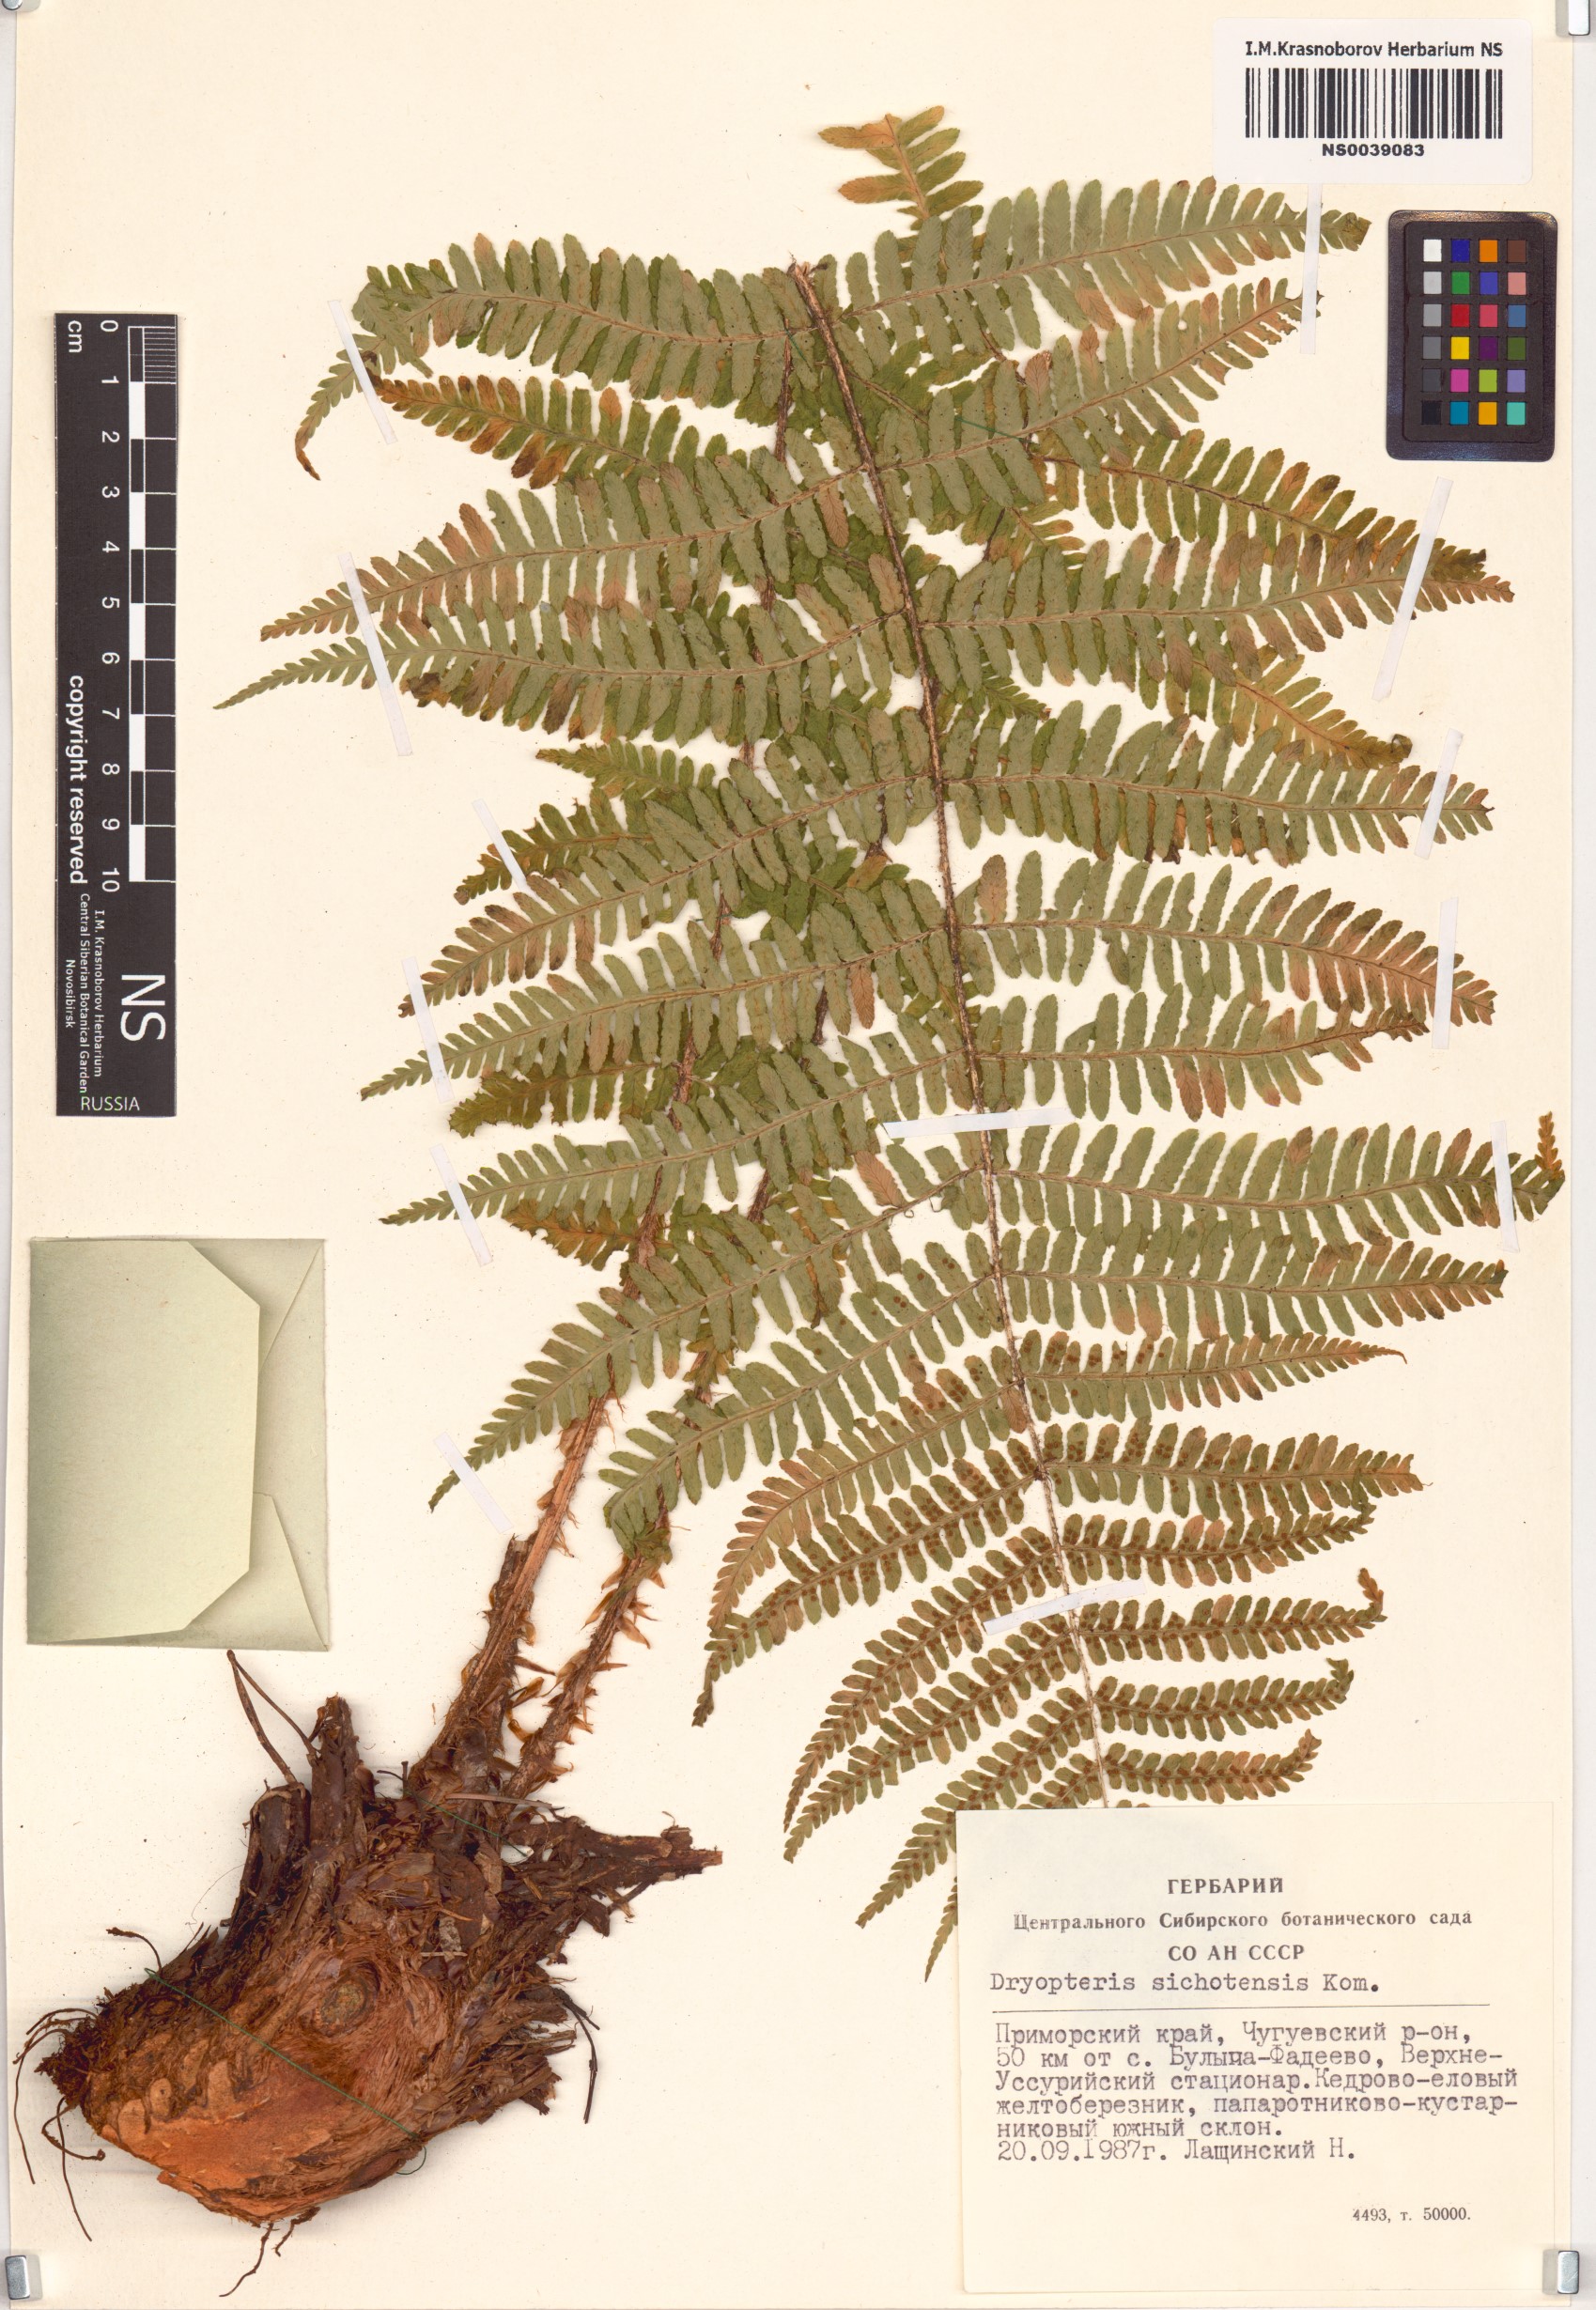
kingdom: Plantae
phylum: Tracheophyta
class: Polypodiopsida
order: Polypodiales
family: Dryopteridaceae
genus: Dryopteris
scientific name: Dryopteris sichotensis
